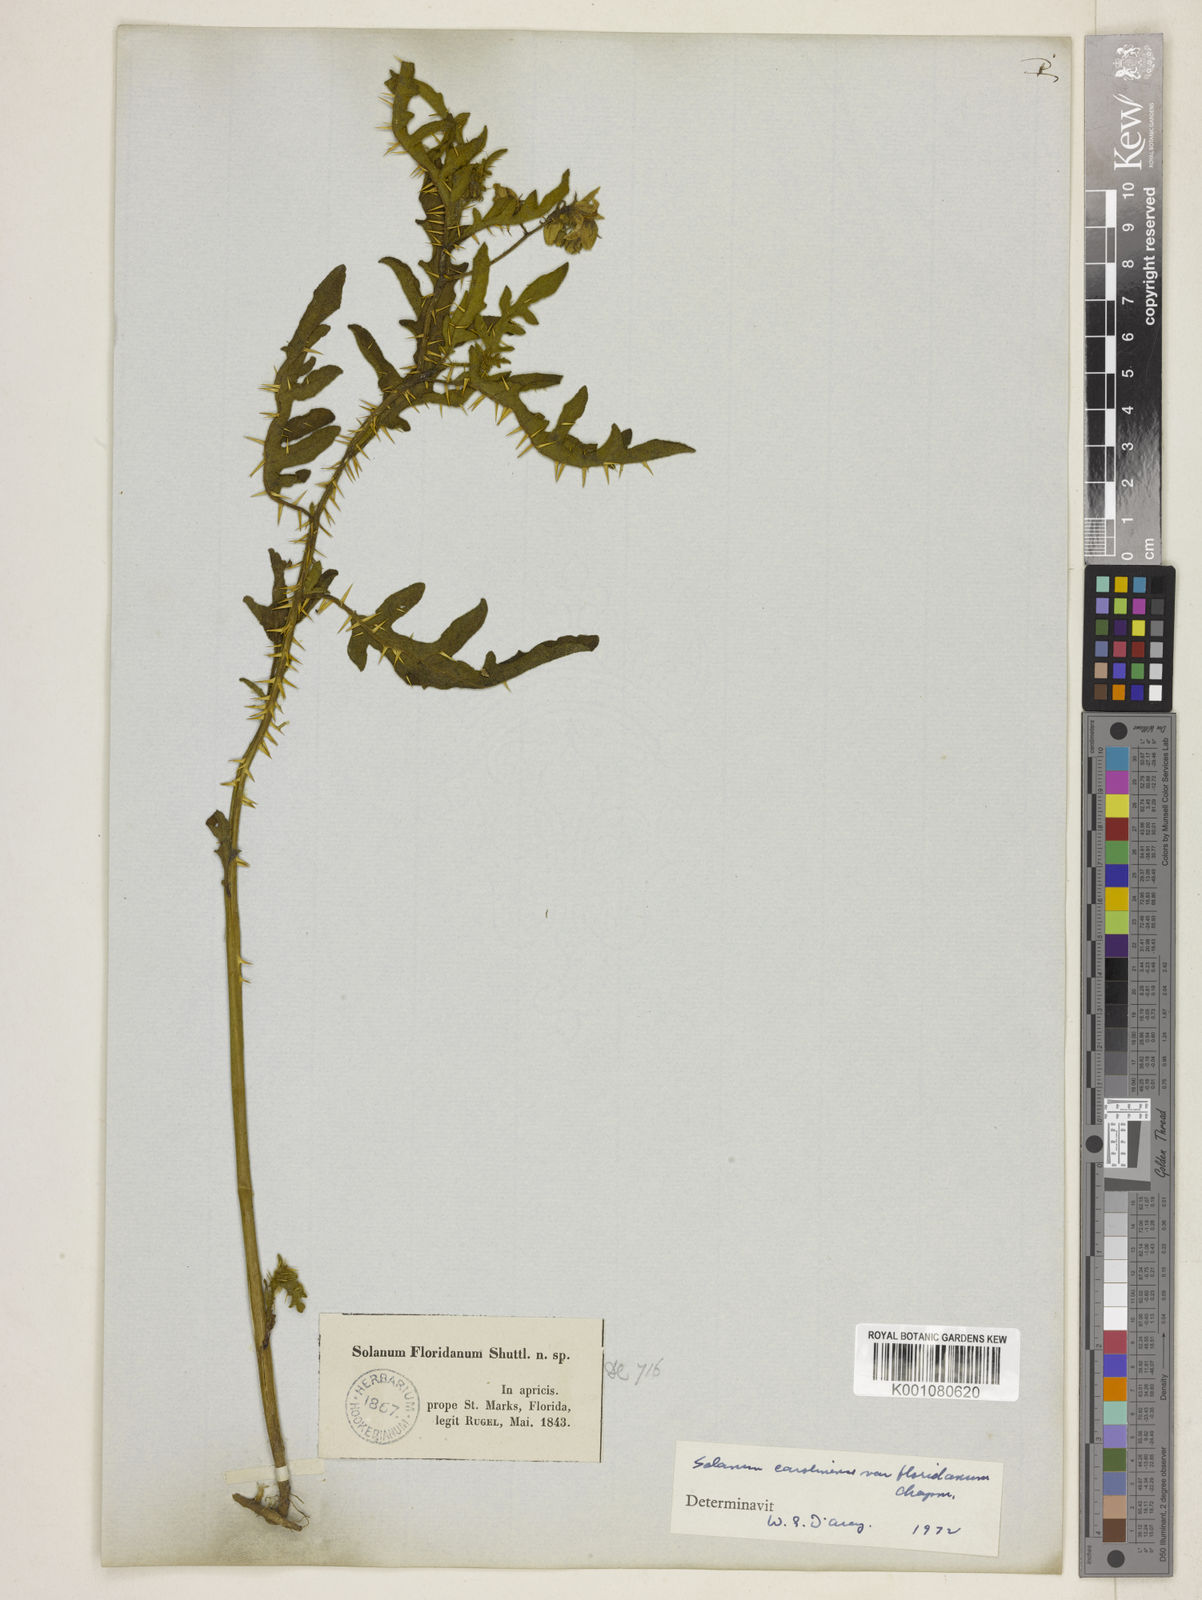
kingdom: Plantae
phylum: Tracheophyta
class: Magnoliopsida
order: Solanales
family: Solanaceae
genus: Solanum
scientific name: Solanum carolinense
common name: Horse-nettle
